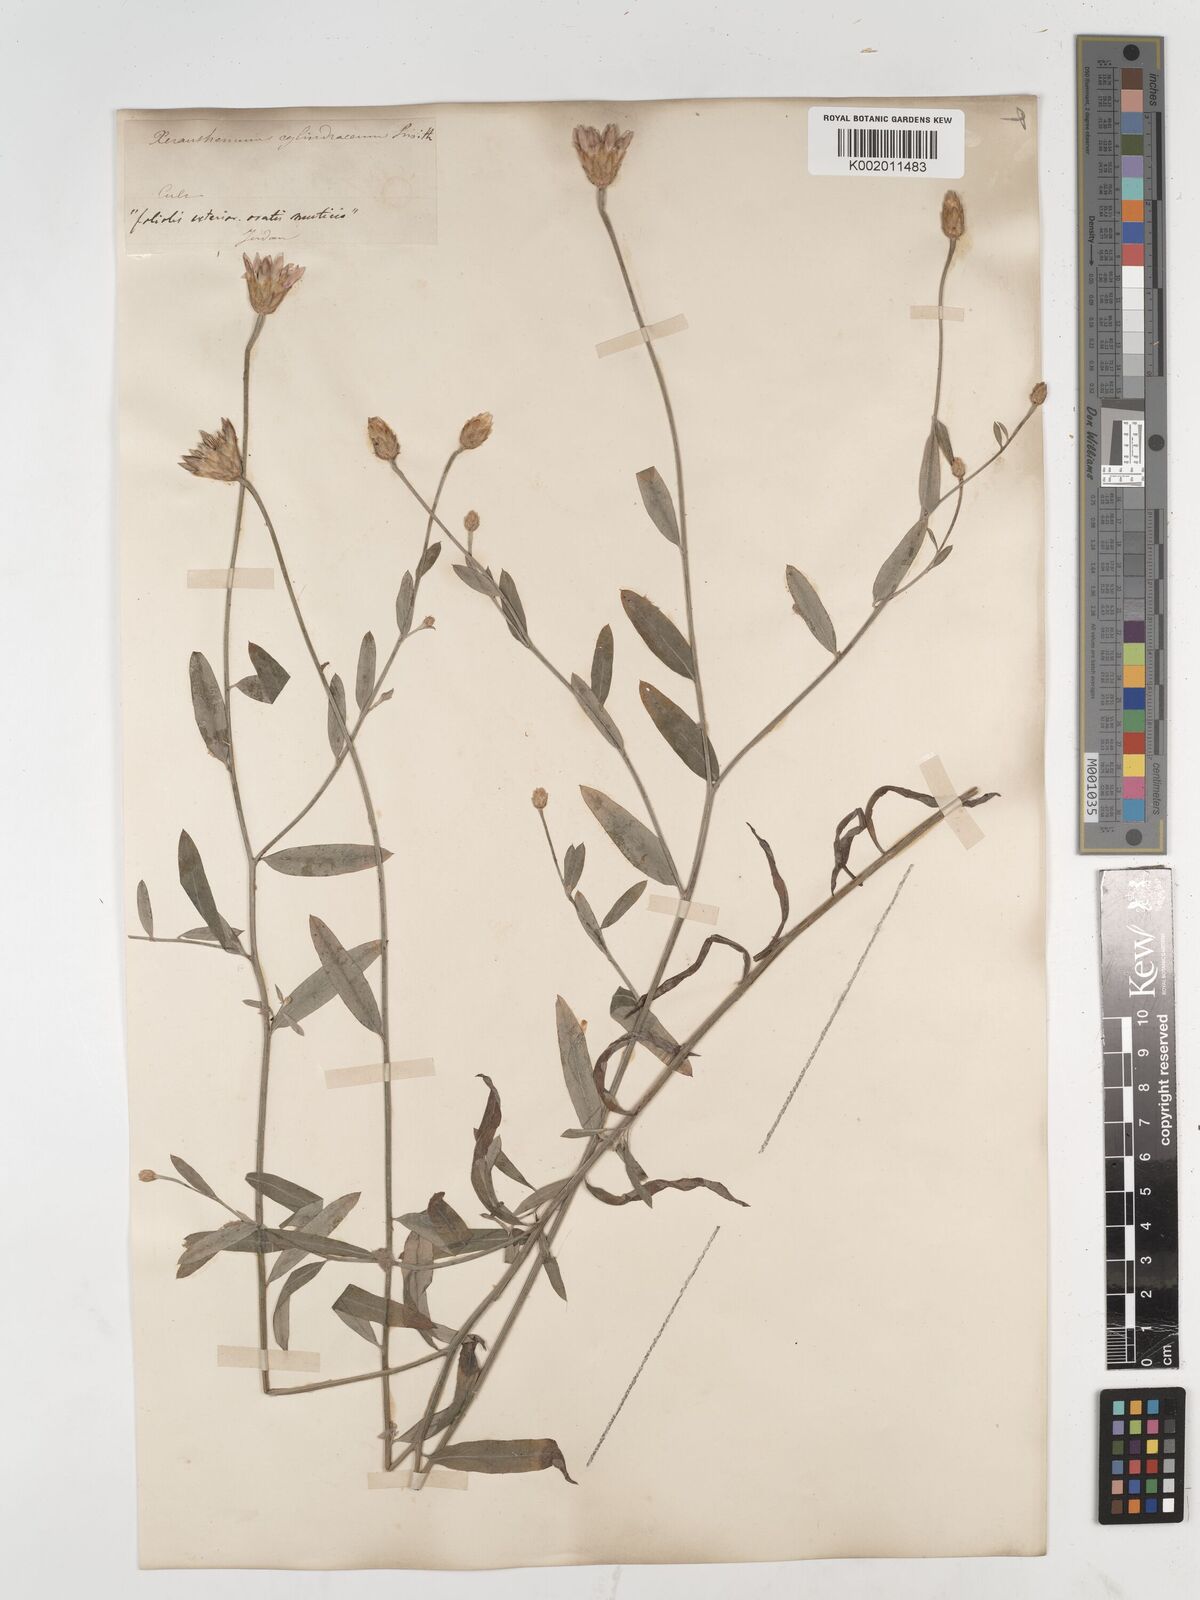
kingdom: Plantae
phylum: Tracheophyta
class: Magnoliopsida
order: Asterales
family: Asteraceae
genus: Xeranthemum
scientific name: Xeranthemum cylindraceum
